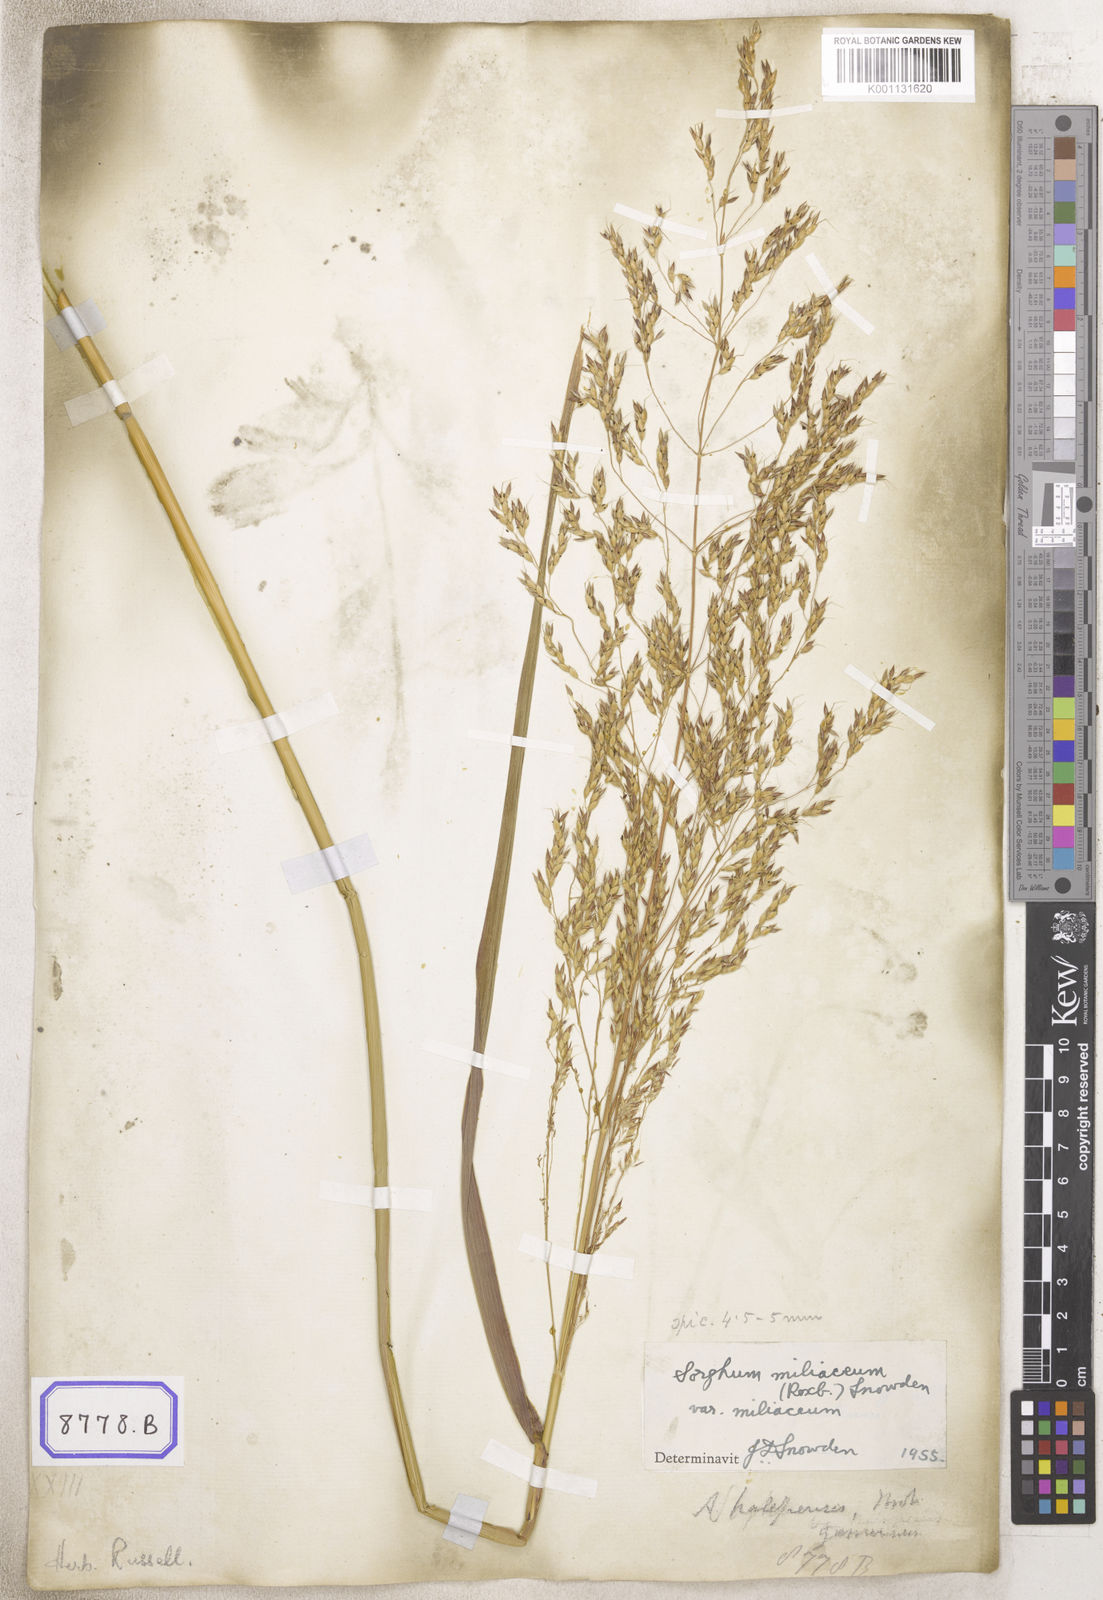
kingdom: Plantae
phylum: Tracheophyta
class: Liliopsida
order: Poales
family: Poaceae
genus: Sorghum
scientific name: Sorghum halepense
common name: Johnson-grass
